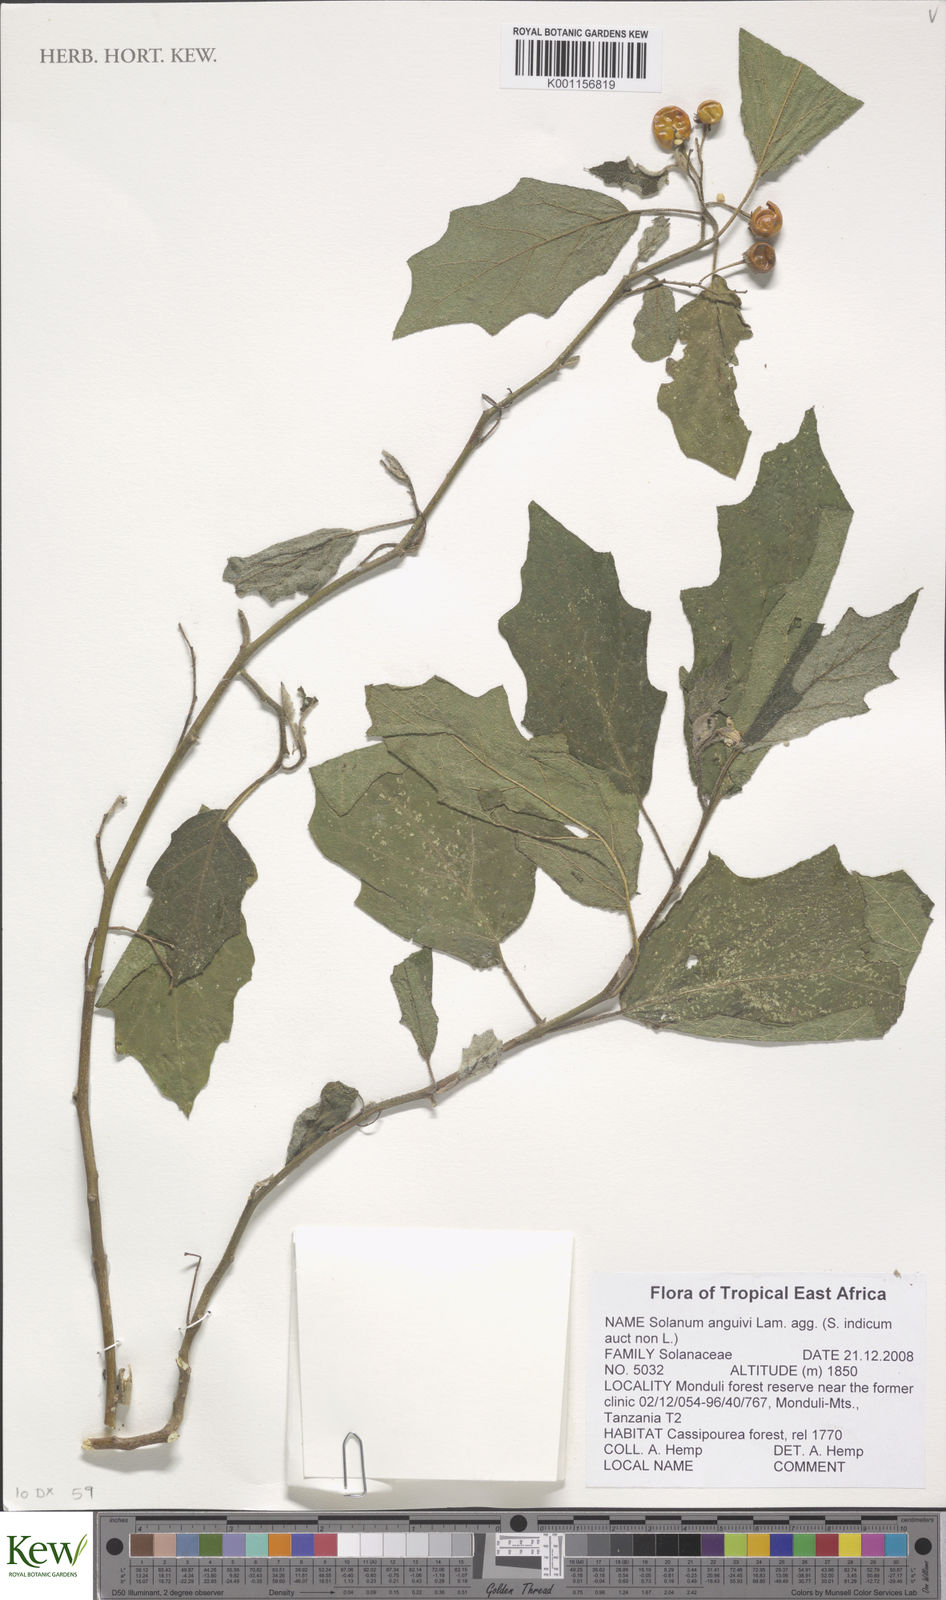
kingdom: Plantae
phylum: Tracheophyta
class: Magnoliopsida
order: Solanales
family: Solanaceae
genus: Solanum
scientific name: Solanum anguivi
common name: Forest bitterberry
